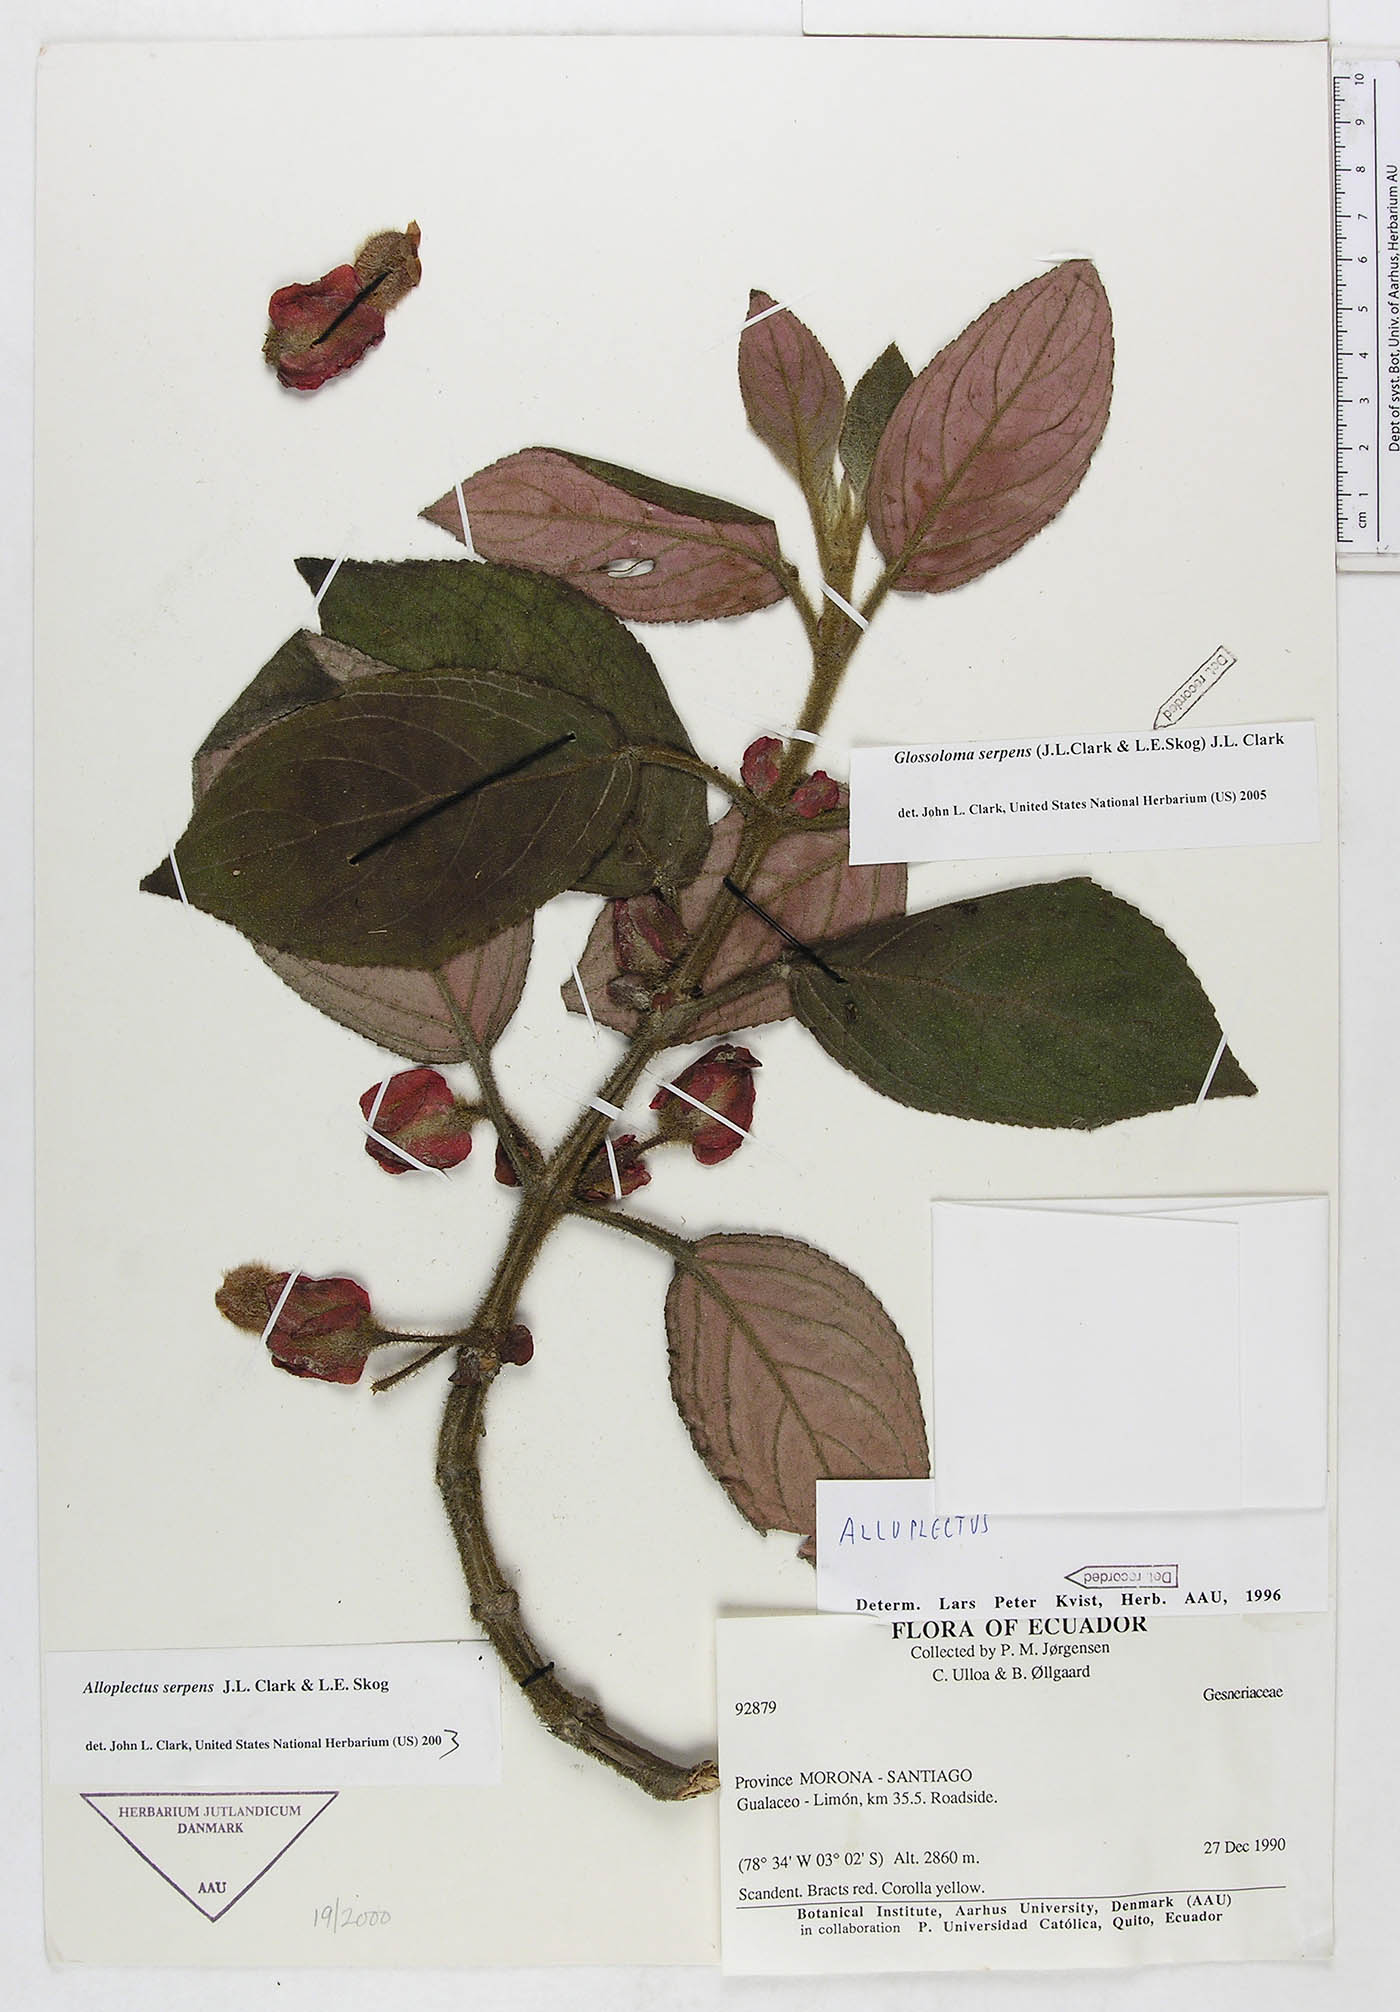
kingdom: Plantae
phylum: Tracheophyta
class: Magnoliopsida
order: Lamiales
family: Gesneriaceae
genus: Glossoloma
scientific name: Glossoloma serpens
